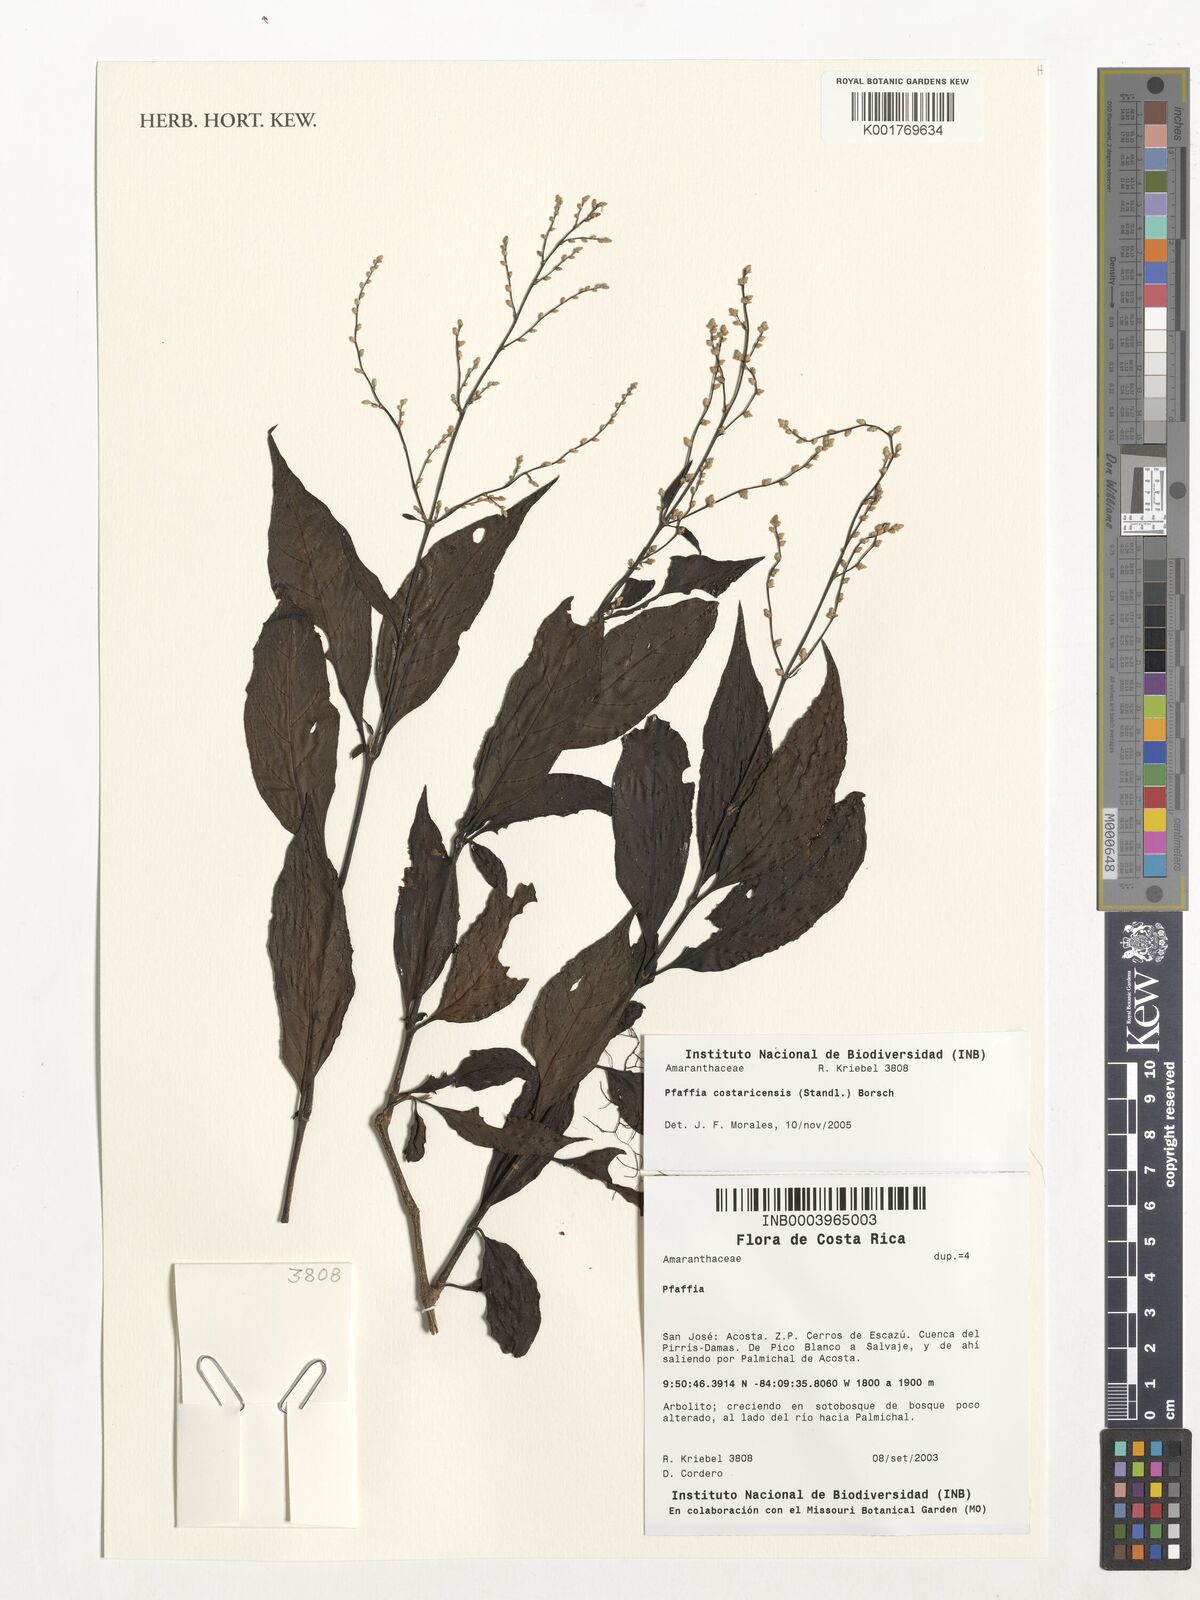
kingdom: Plantae
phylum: Tracheophyta
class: Magnoliopsida
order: Caryophyllales
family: Amaranthaceae
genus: Pedersenia
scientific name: Pedersenia costaricensis
